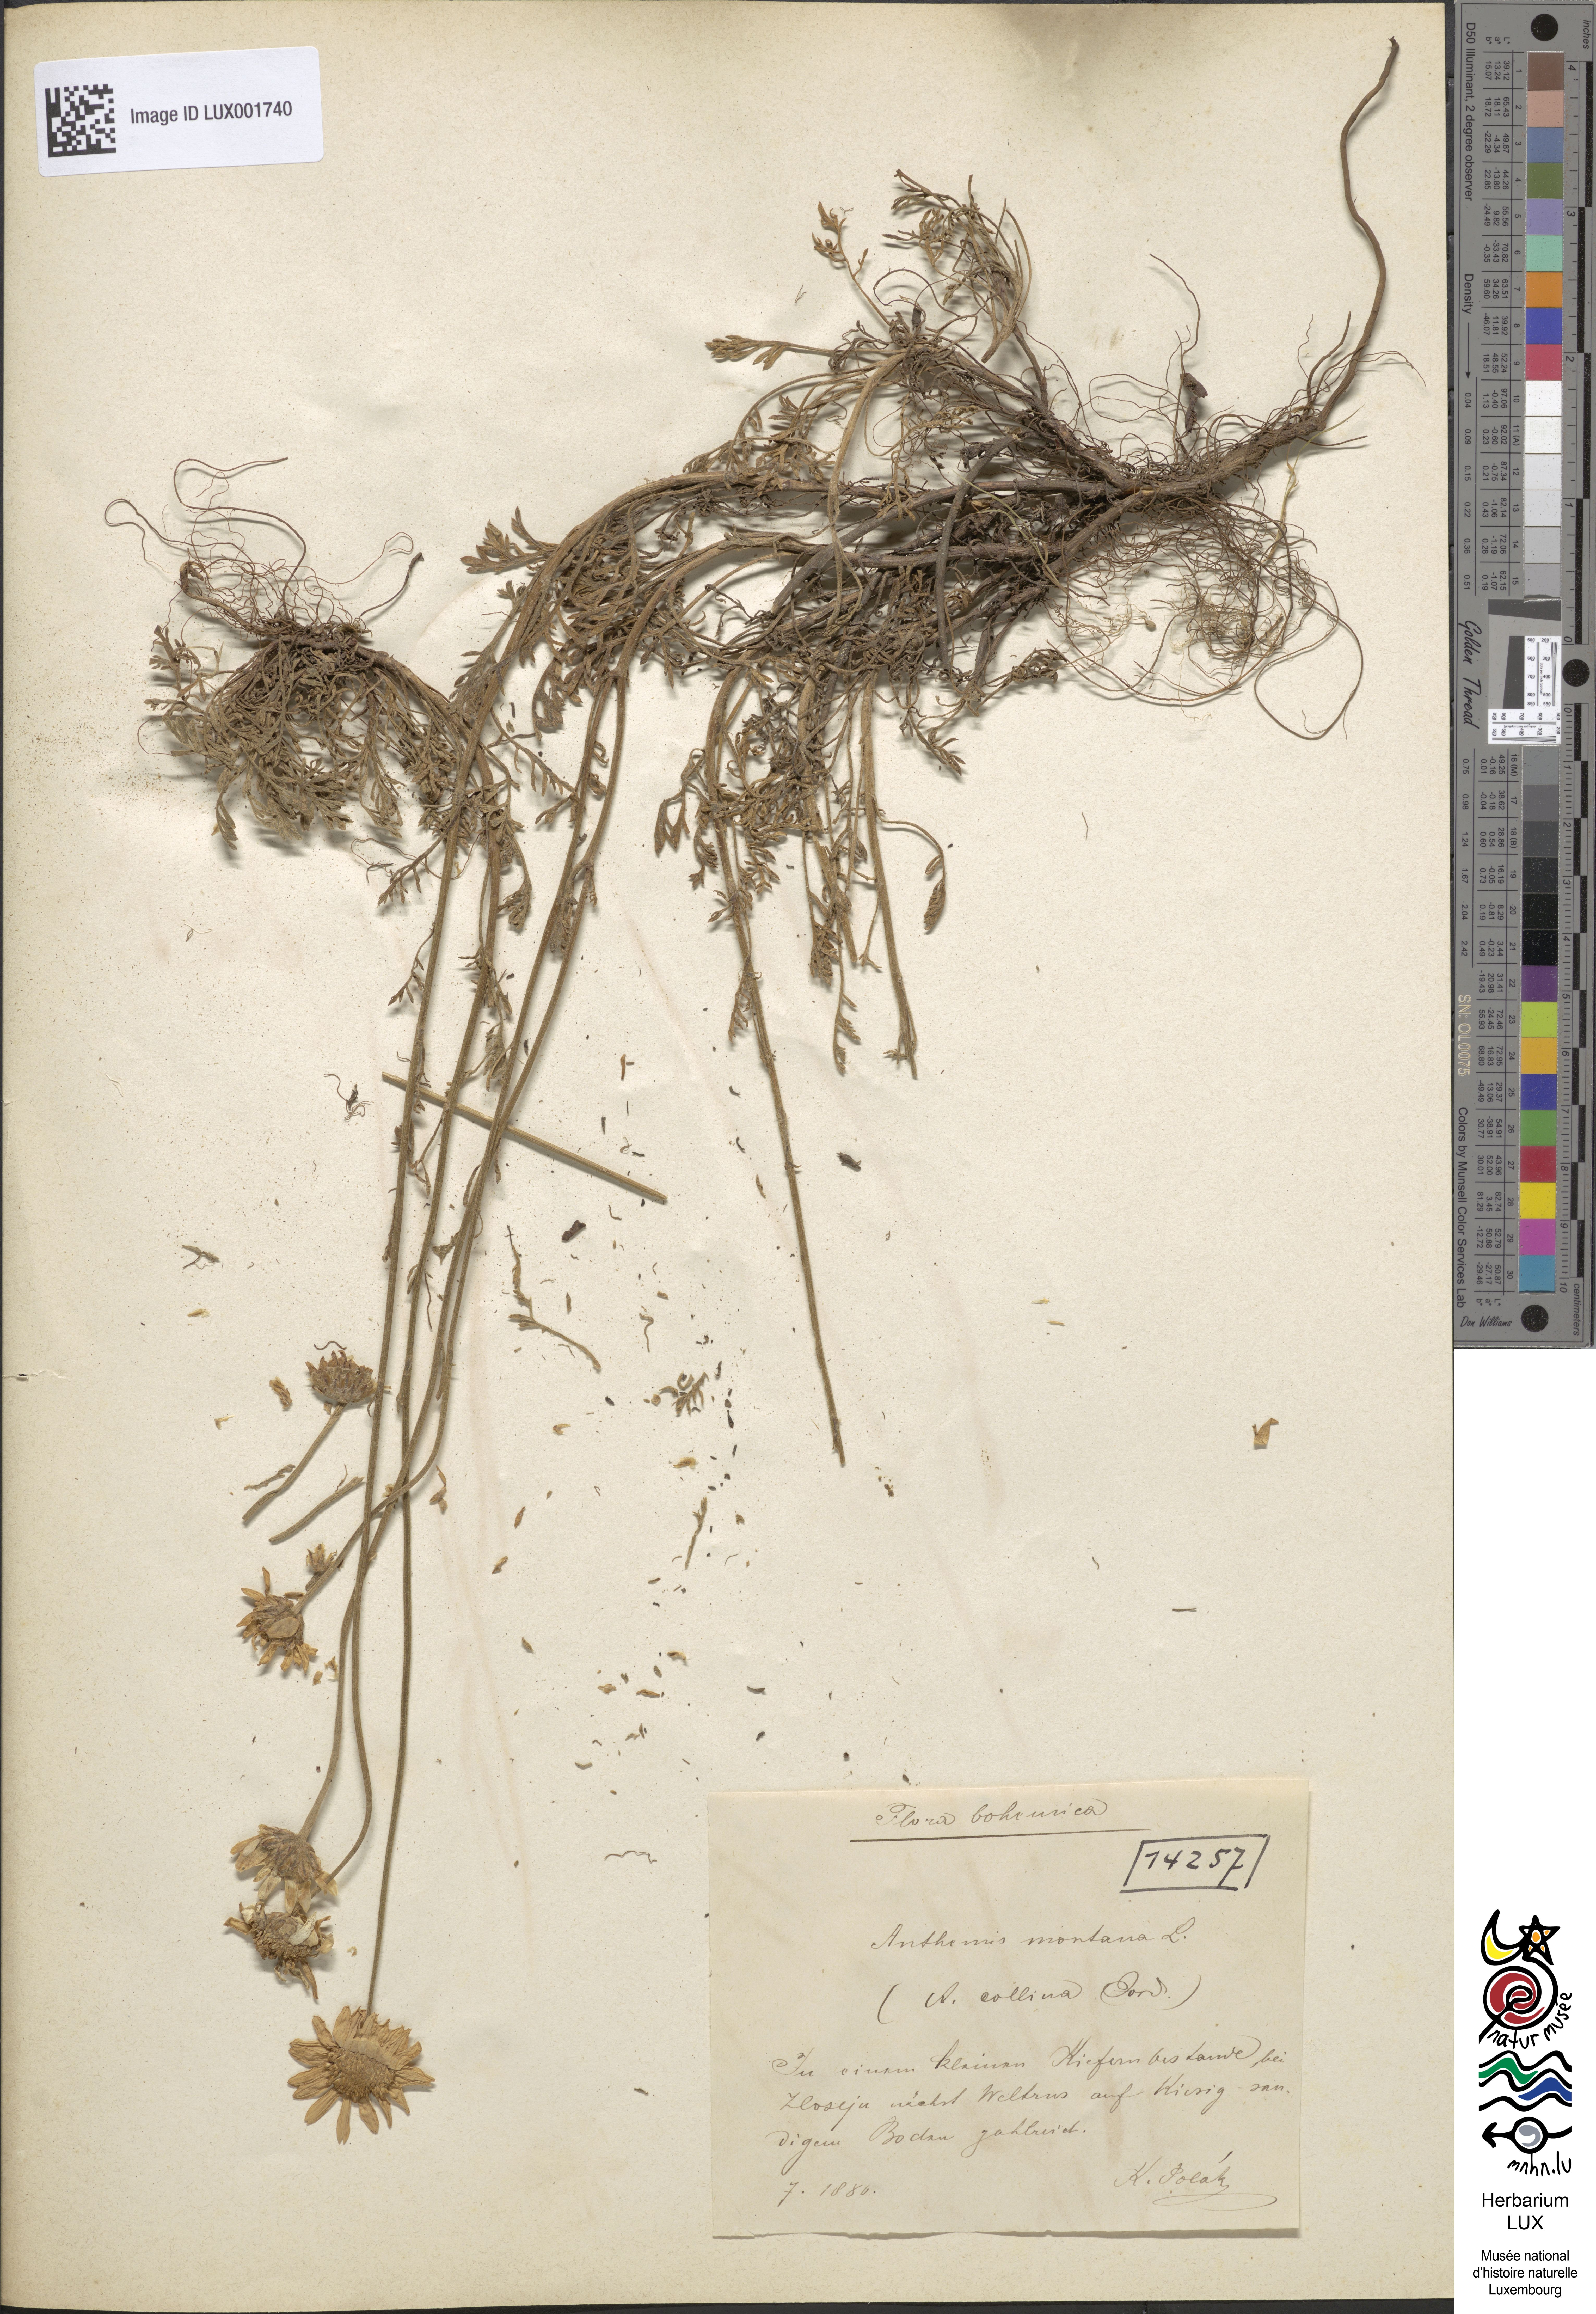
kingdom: Plantae
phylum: Tracheophyta
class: Magnoliopsida
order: Asterales
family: Asteraceae
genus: Anthemis
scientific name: Anthemis cretica
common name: Mountain dog-daisy
